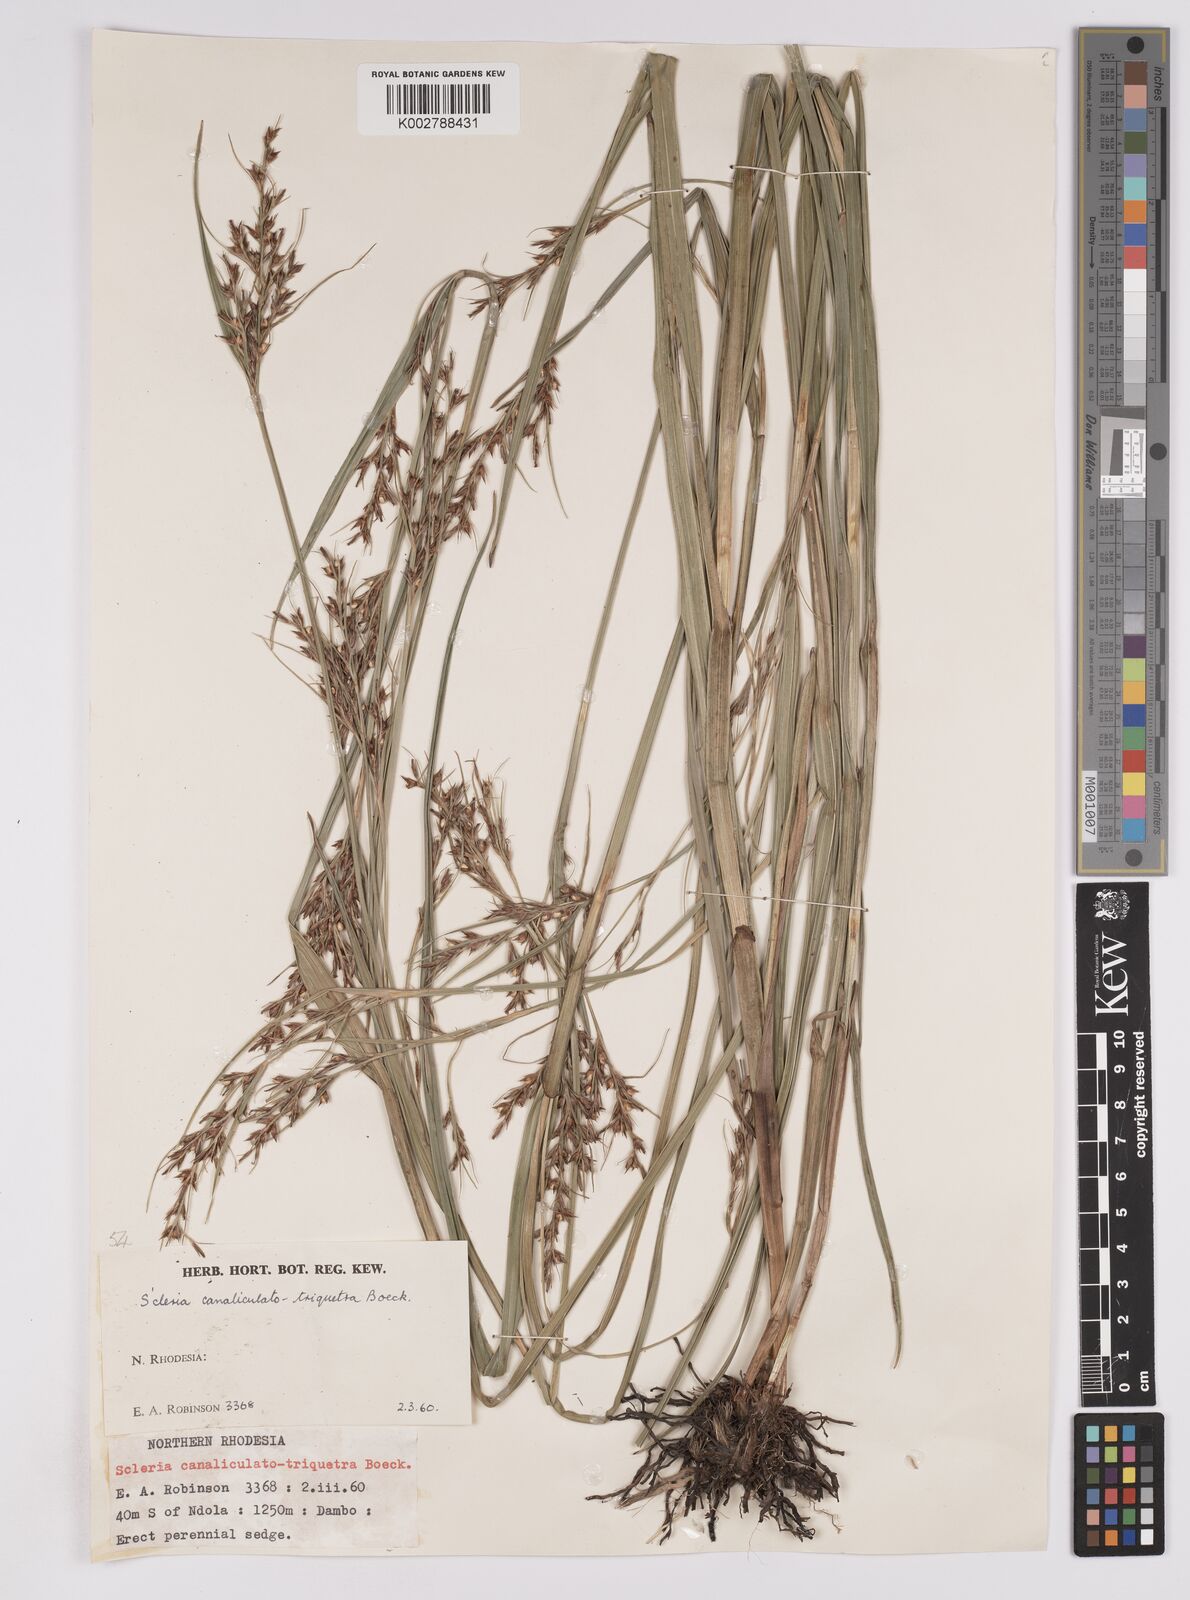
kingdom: Plantae
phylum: Tracheophyta
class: Liliopsida
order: Poales
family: Cyperaceae
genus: Scleria
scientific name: Scleria lagoensis
